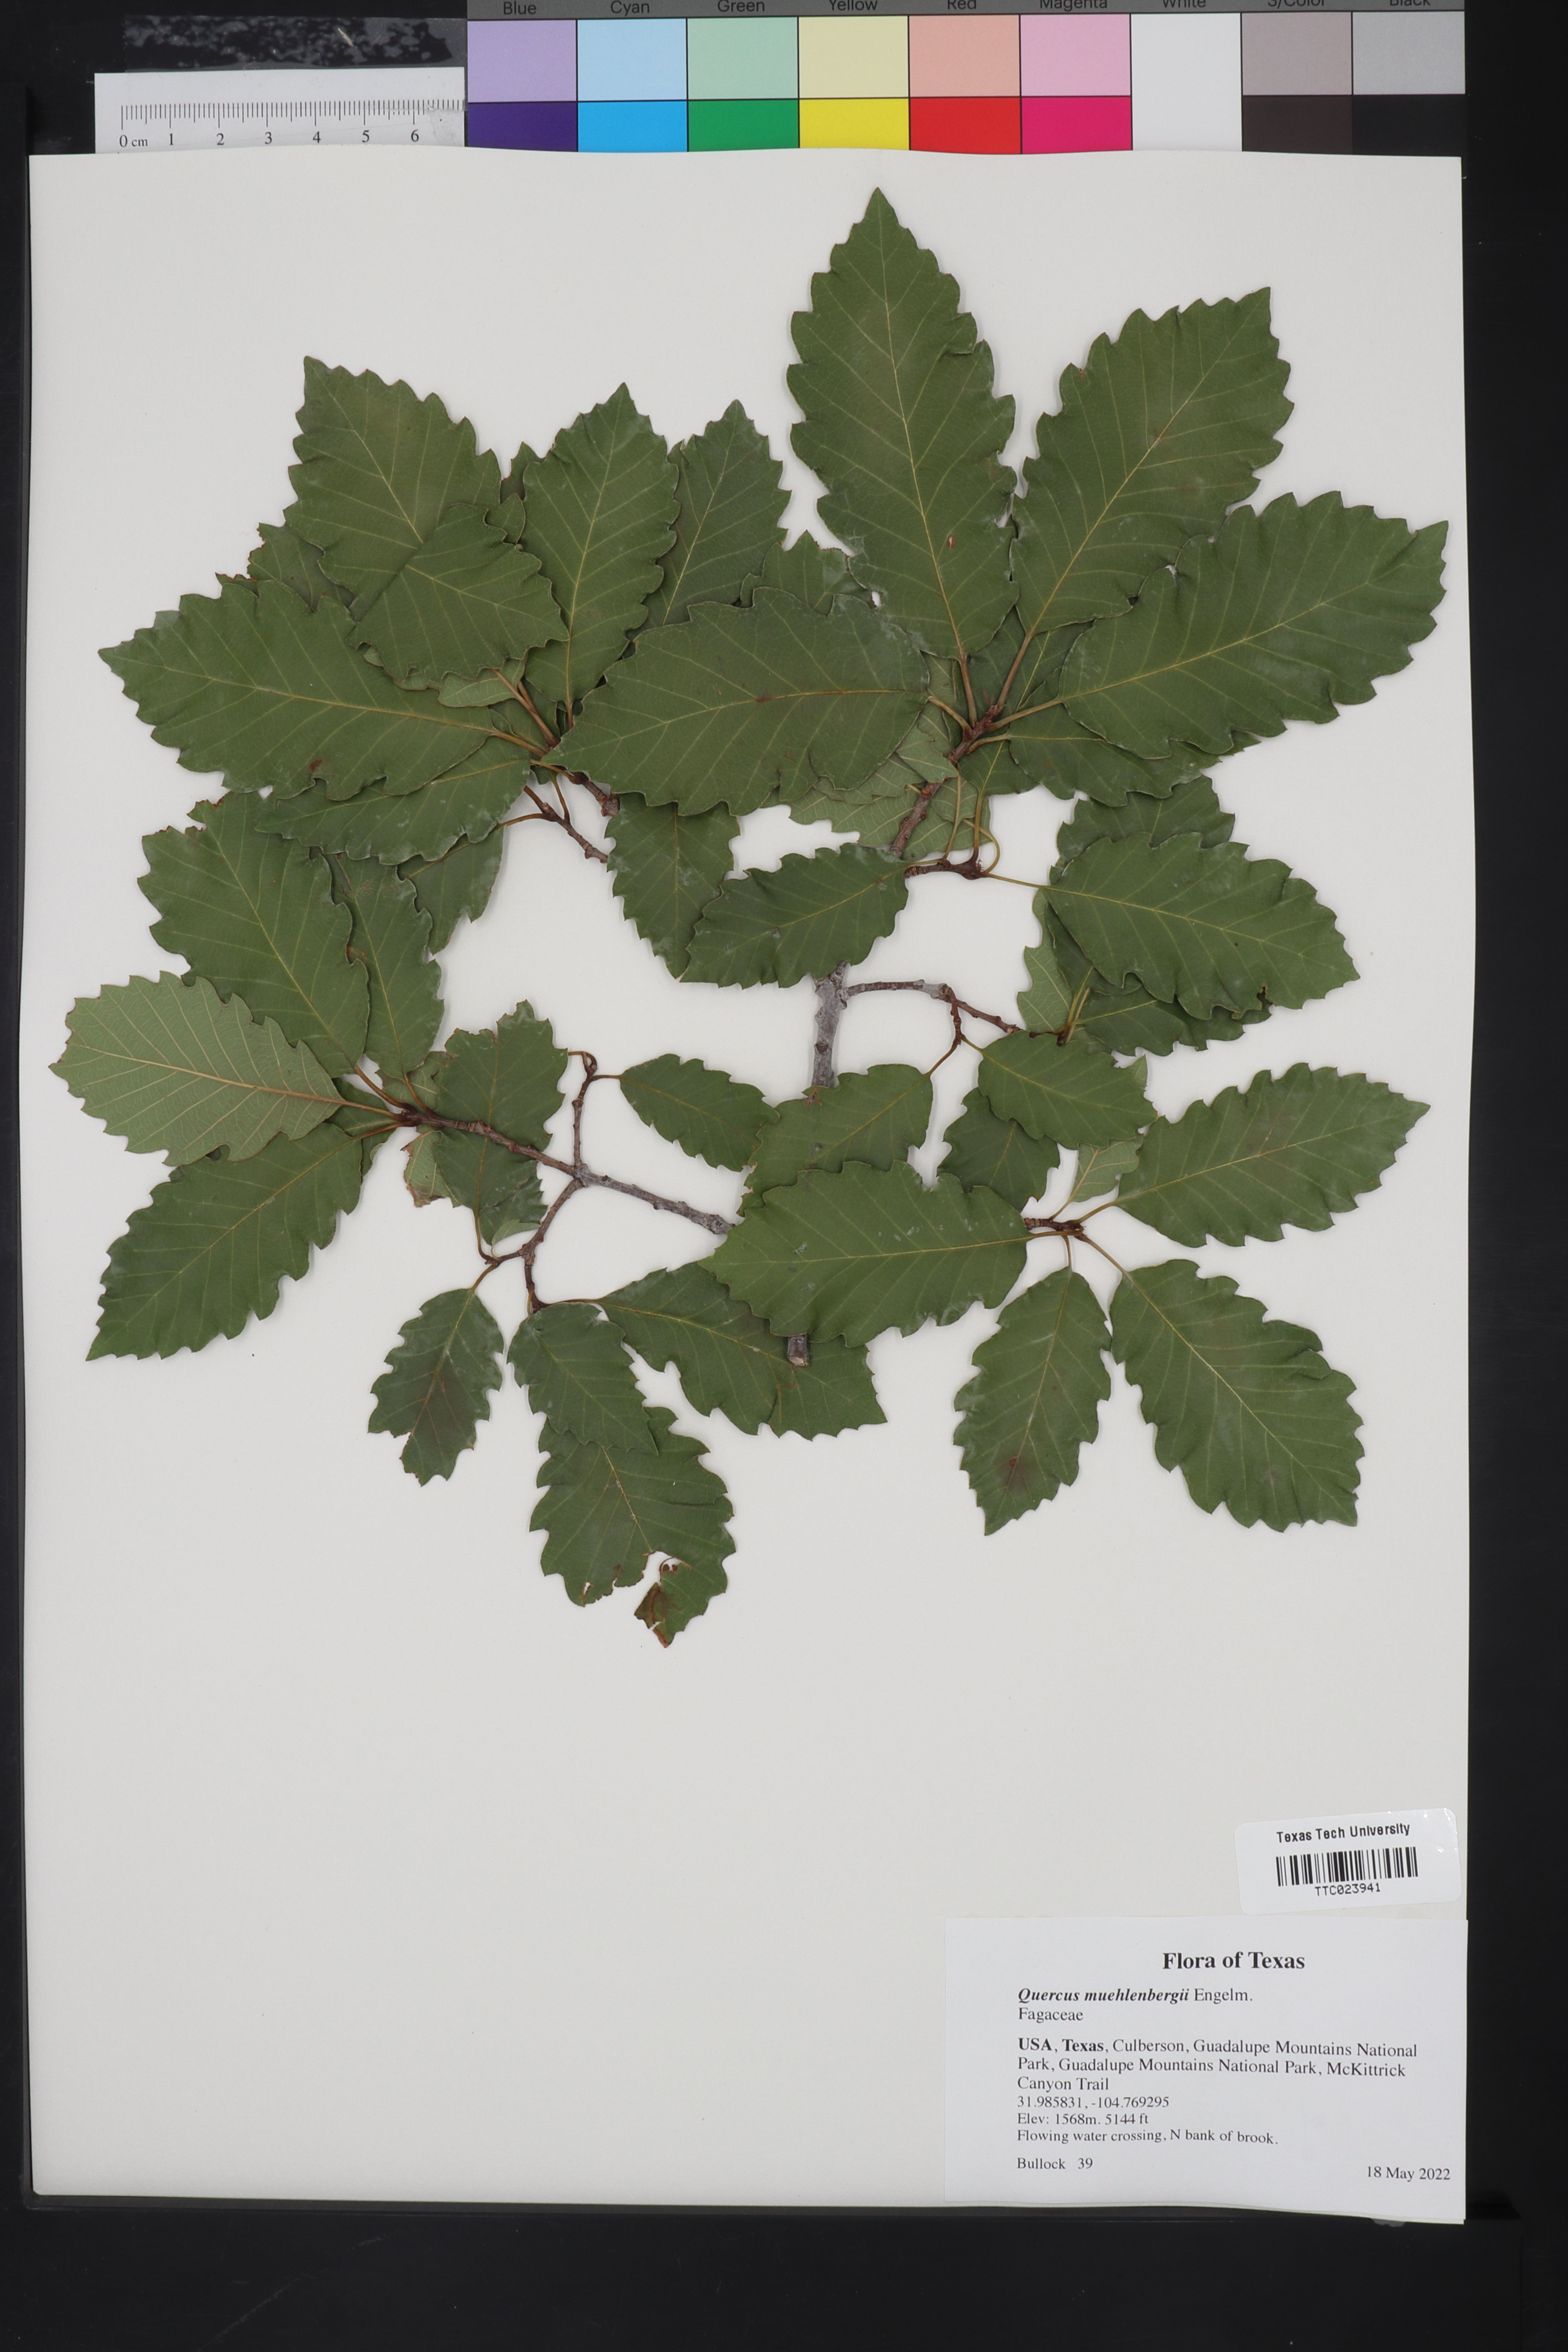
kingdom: Plantae
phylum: Tracheophyta
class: Magnoliopsida
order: Fagales
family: Fagaceae
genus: Quercus
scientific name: Quercus muehlenbergii
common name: Chinkapin oak
